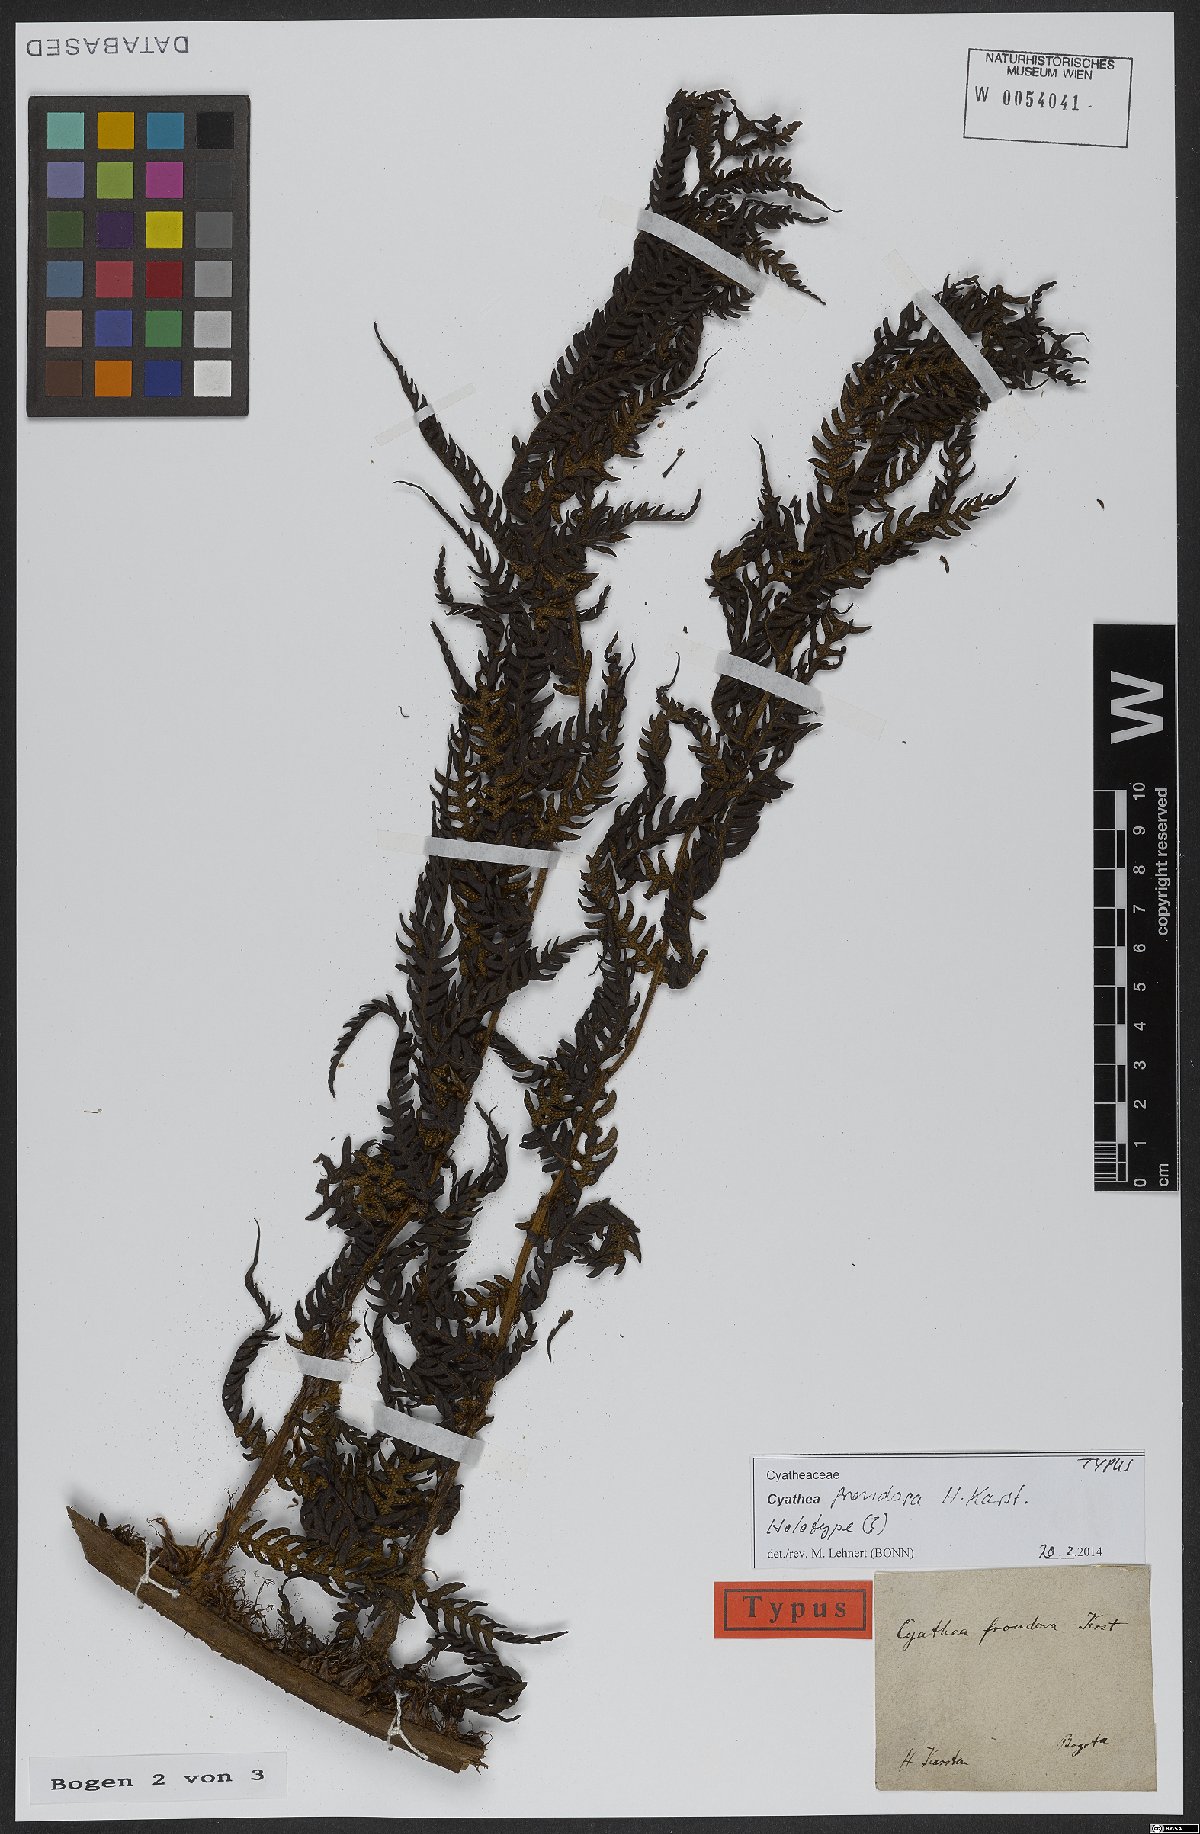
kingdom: Plantae
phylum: Tracheophyta
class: Polypodiopsida
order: Cyatheales
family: Cyatheaceae
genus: Cyathea
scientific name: Cyathea frondosa
